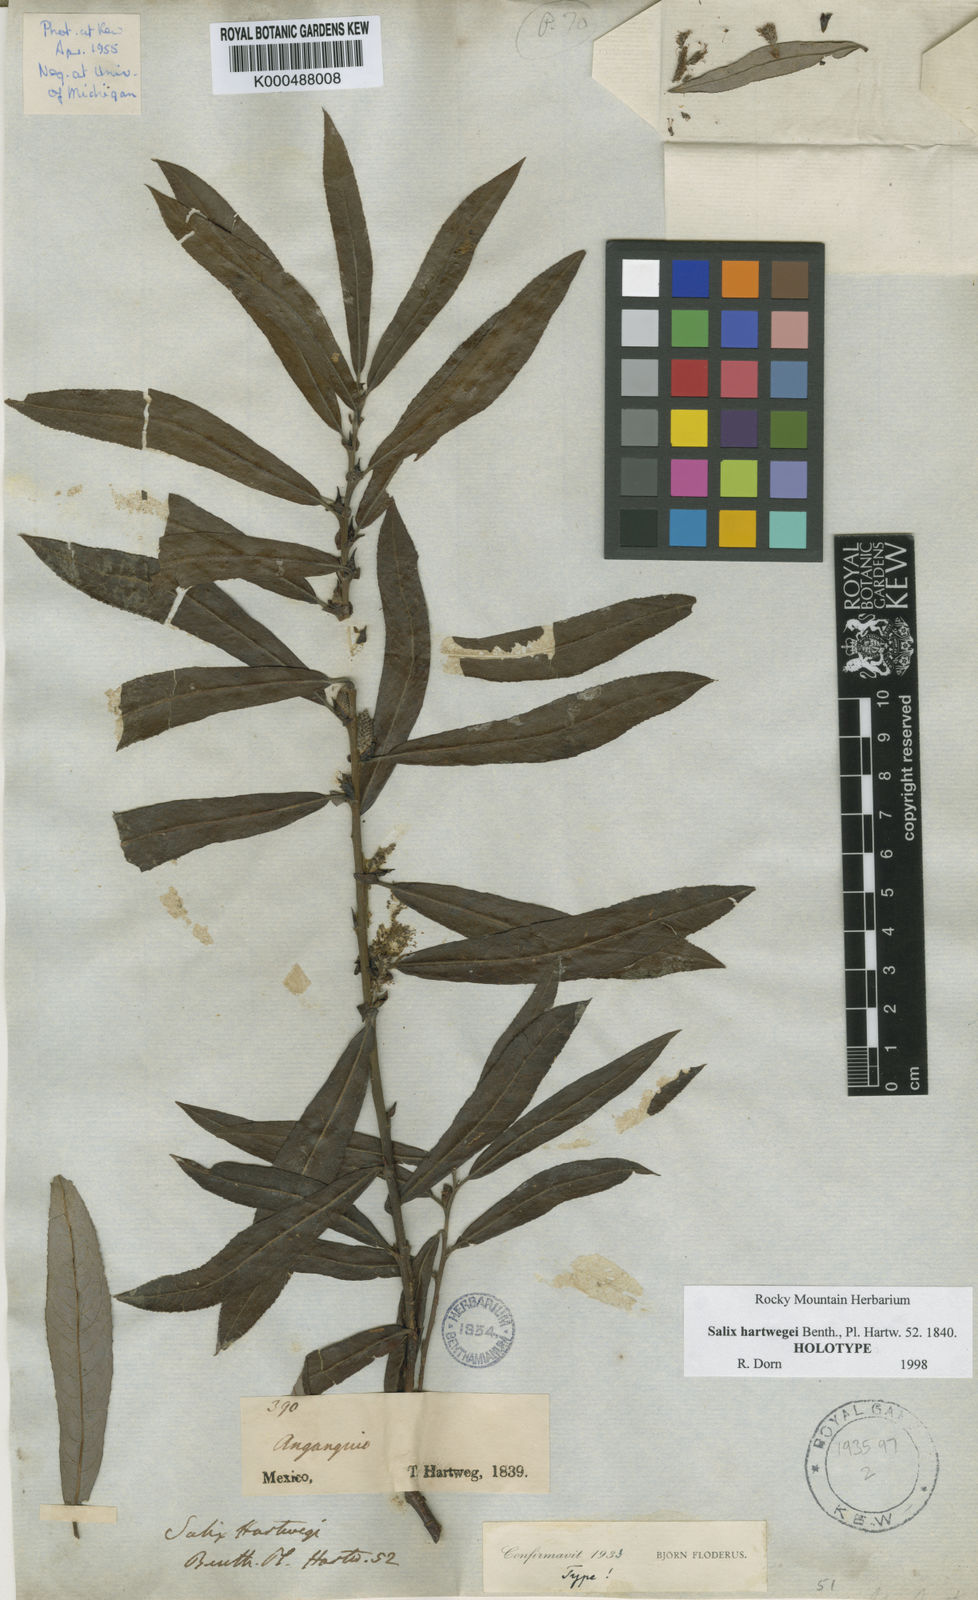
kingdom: Plantae
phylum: Tracheophyta
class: Magnoliopsida
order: Malpighiales
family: Salicaceae
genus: Salix
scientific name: Salix hartwegii
